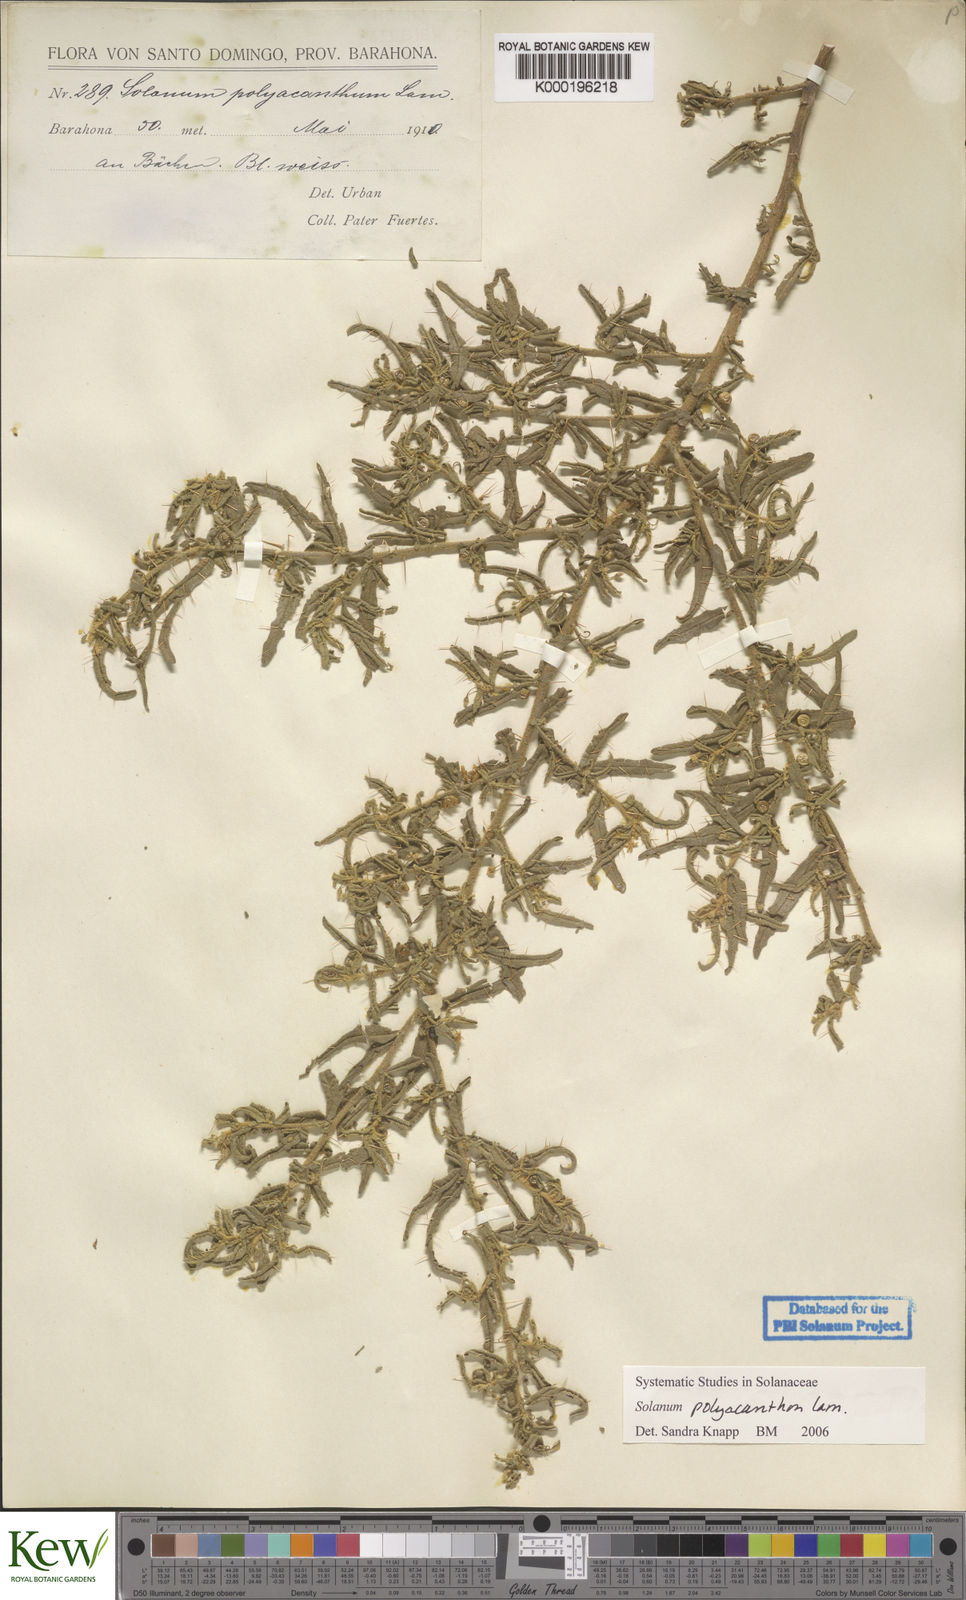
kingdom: Plantae
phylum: Tracheophyta
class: Magnoliopsida
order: Solanales
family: Solanaceae
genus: Solanum
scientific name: Solanum polyacanthos
